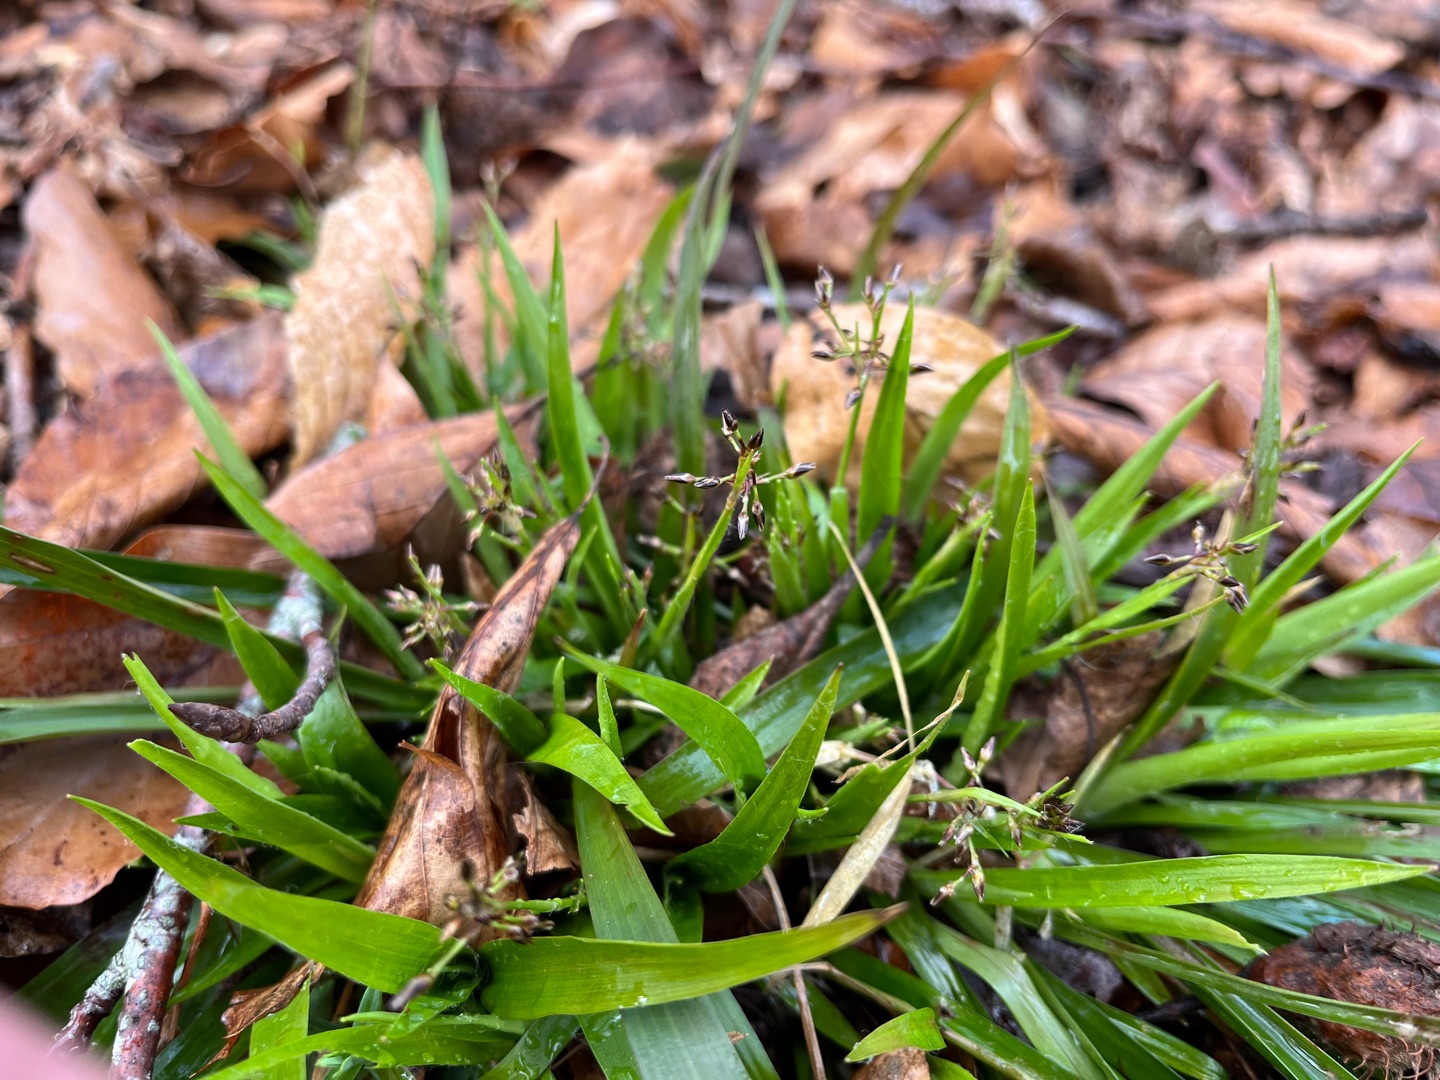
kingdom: Plantae
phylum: Tracheophyta
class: Liliopsida
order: Poales
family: Juncaceae
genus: Luzula
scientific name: Luzula pilosa
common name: Håret frytle
